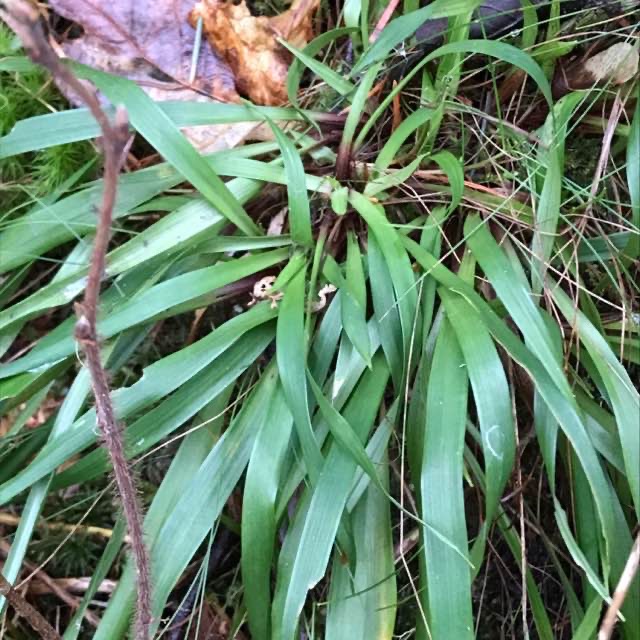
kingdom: Plantae
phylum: Tracheophyta
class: Liliopsida
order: Poales
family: Juncaceae
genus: Luzula
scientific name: Luzula sylvatica
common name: Stor frytle
